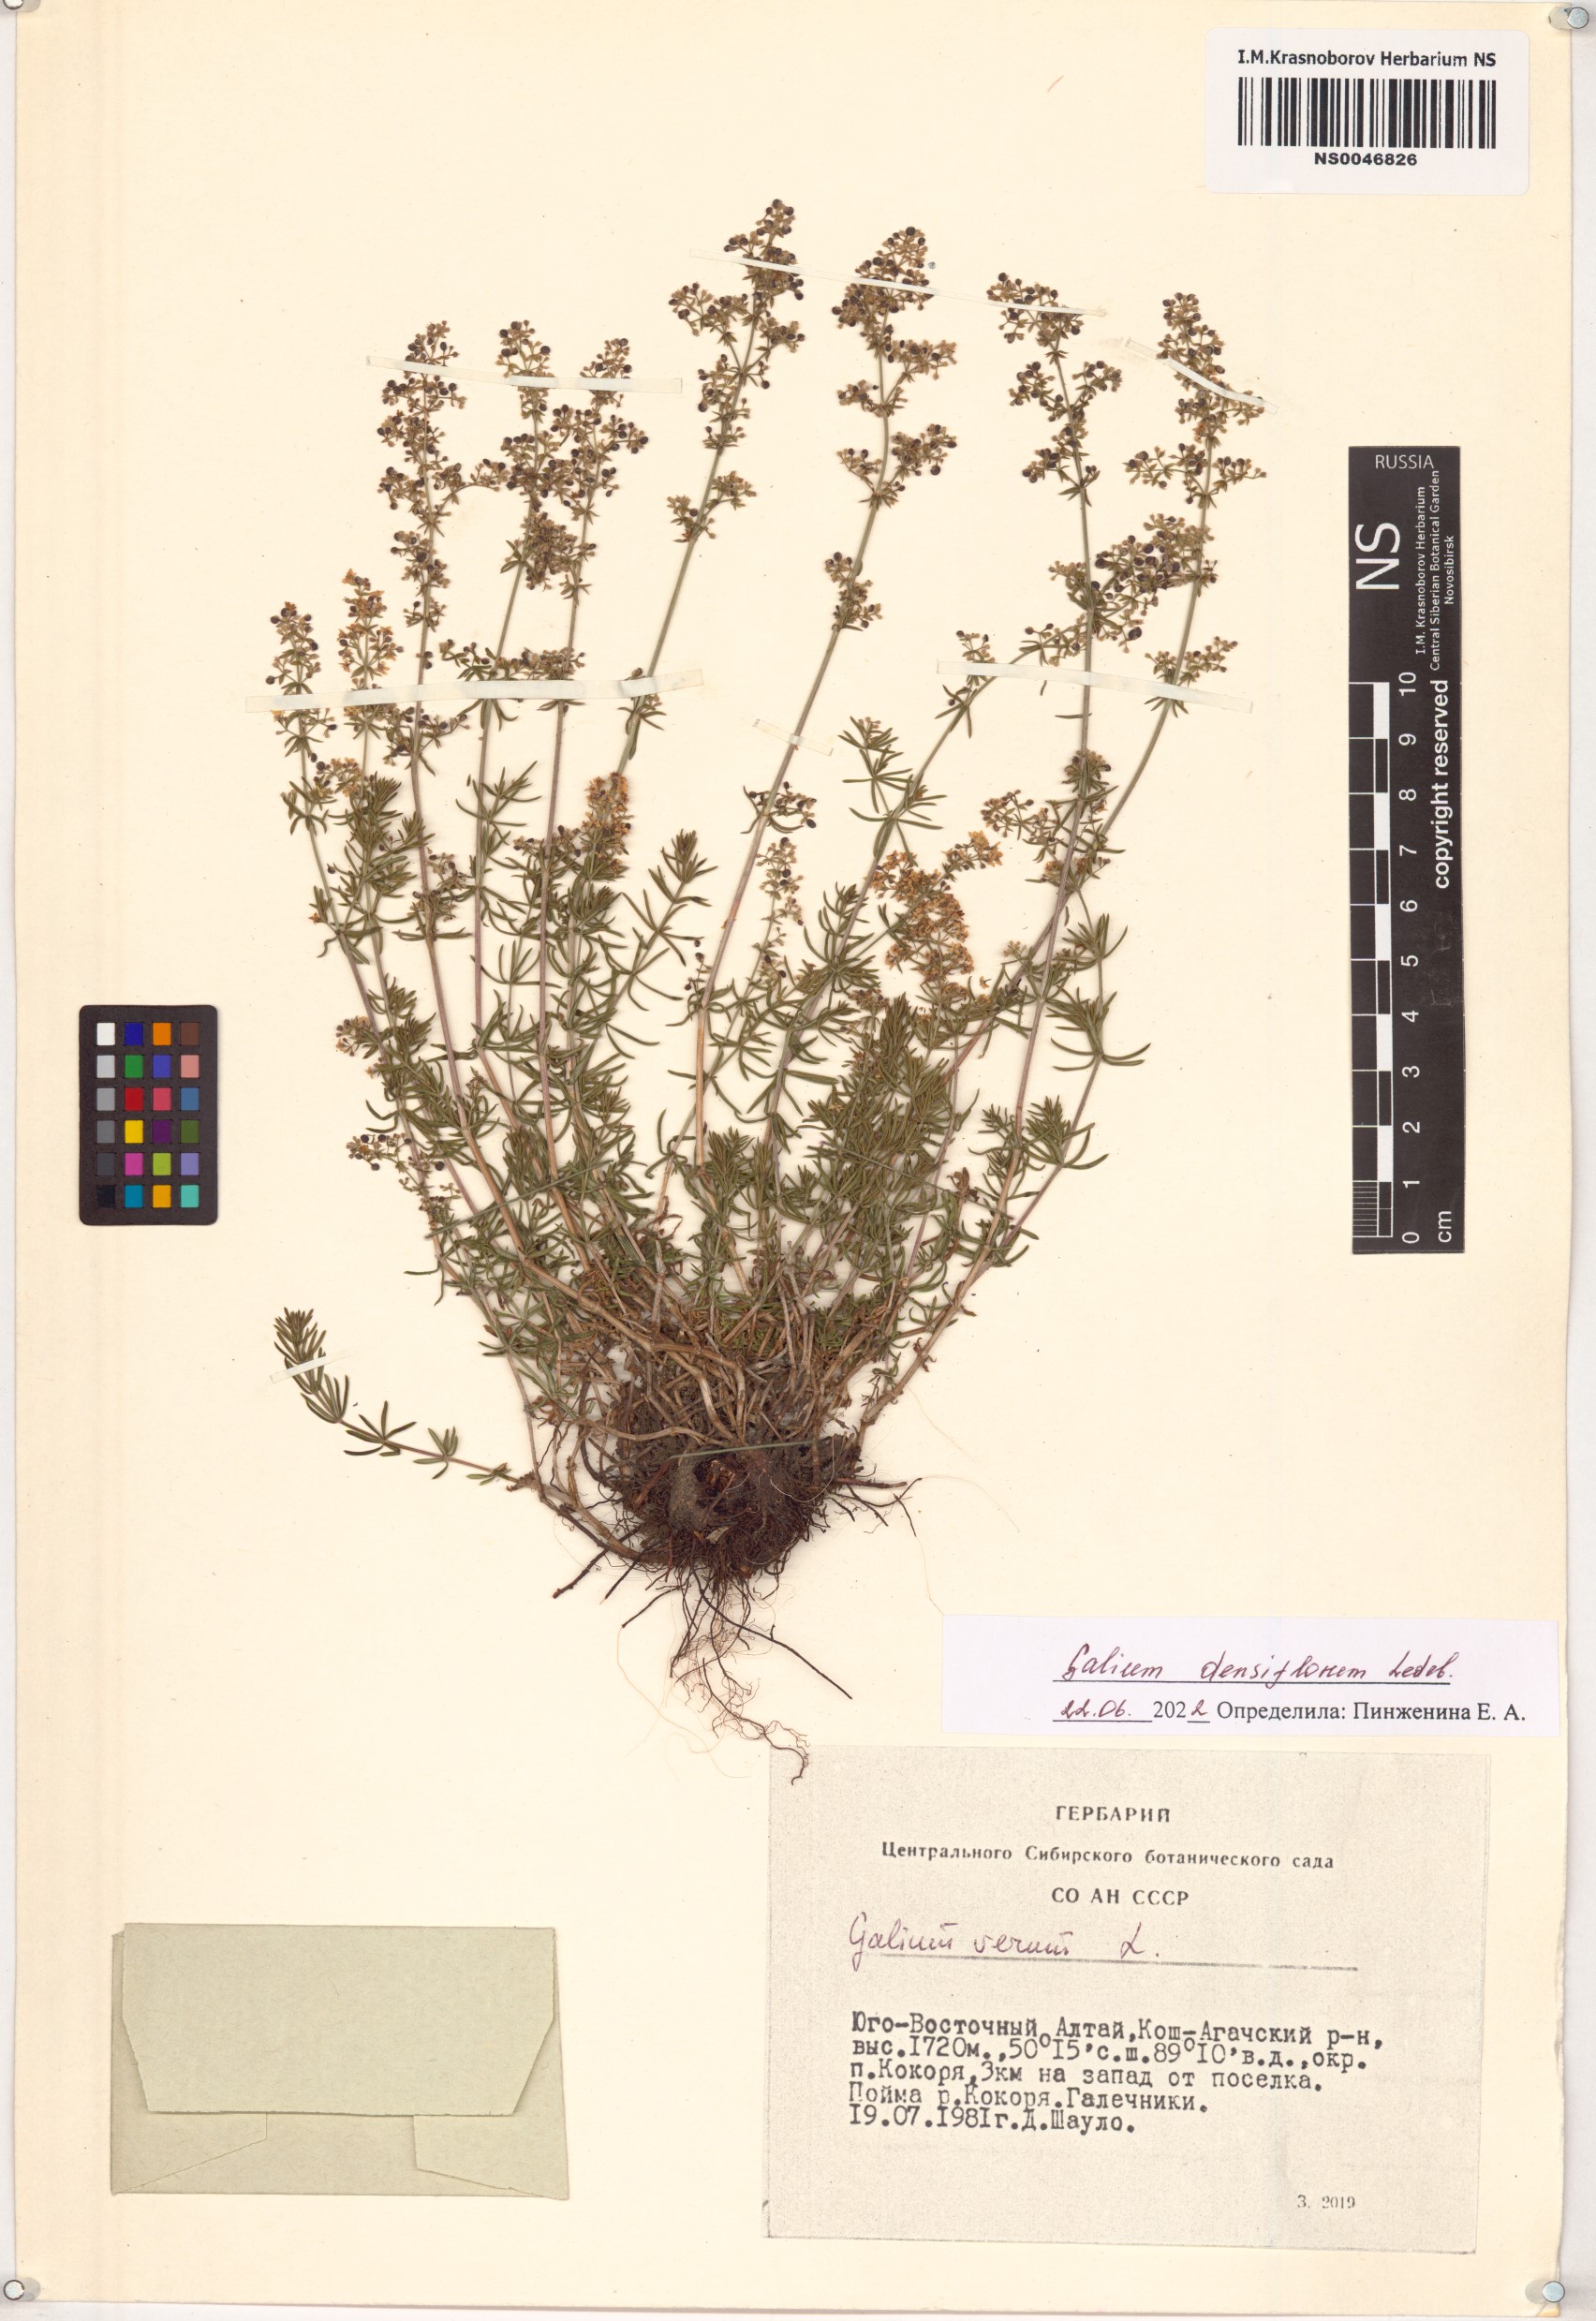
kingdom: Plantae
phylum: Tracheophyta
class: Magnoliopsida
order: Gentianales
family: Rubiaceae
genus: Galium
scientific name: Galium densiflorum
